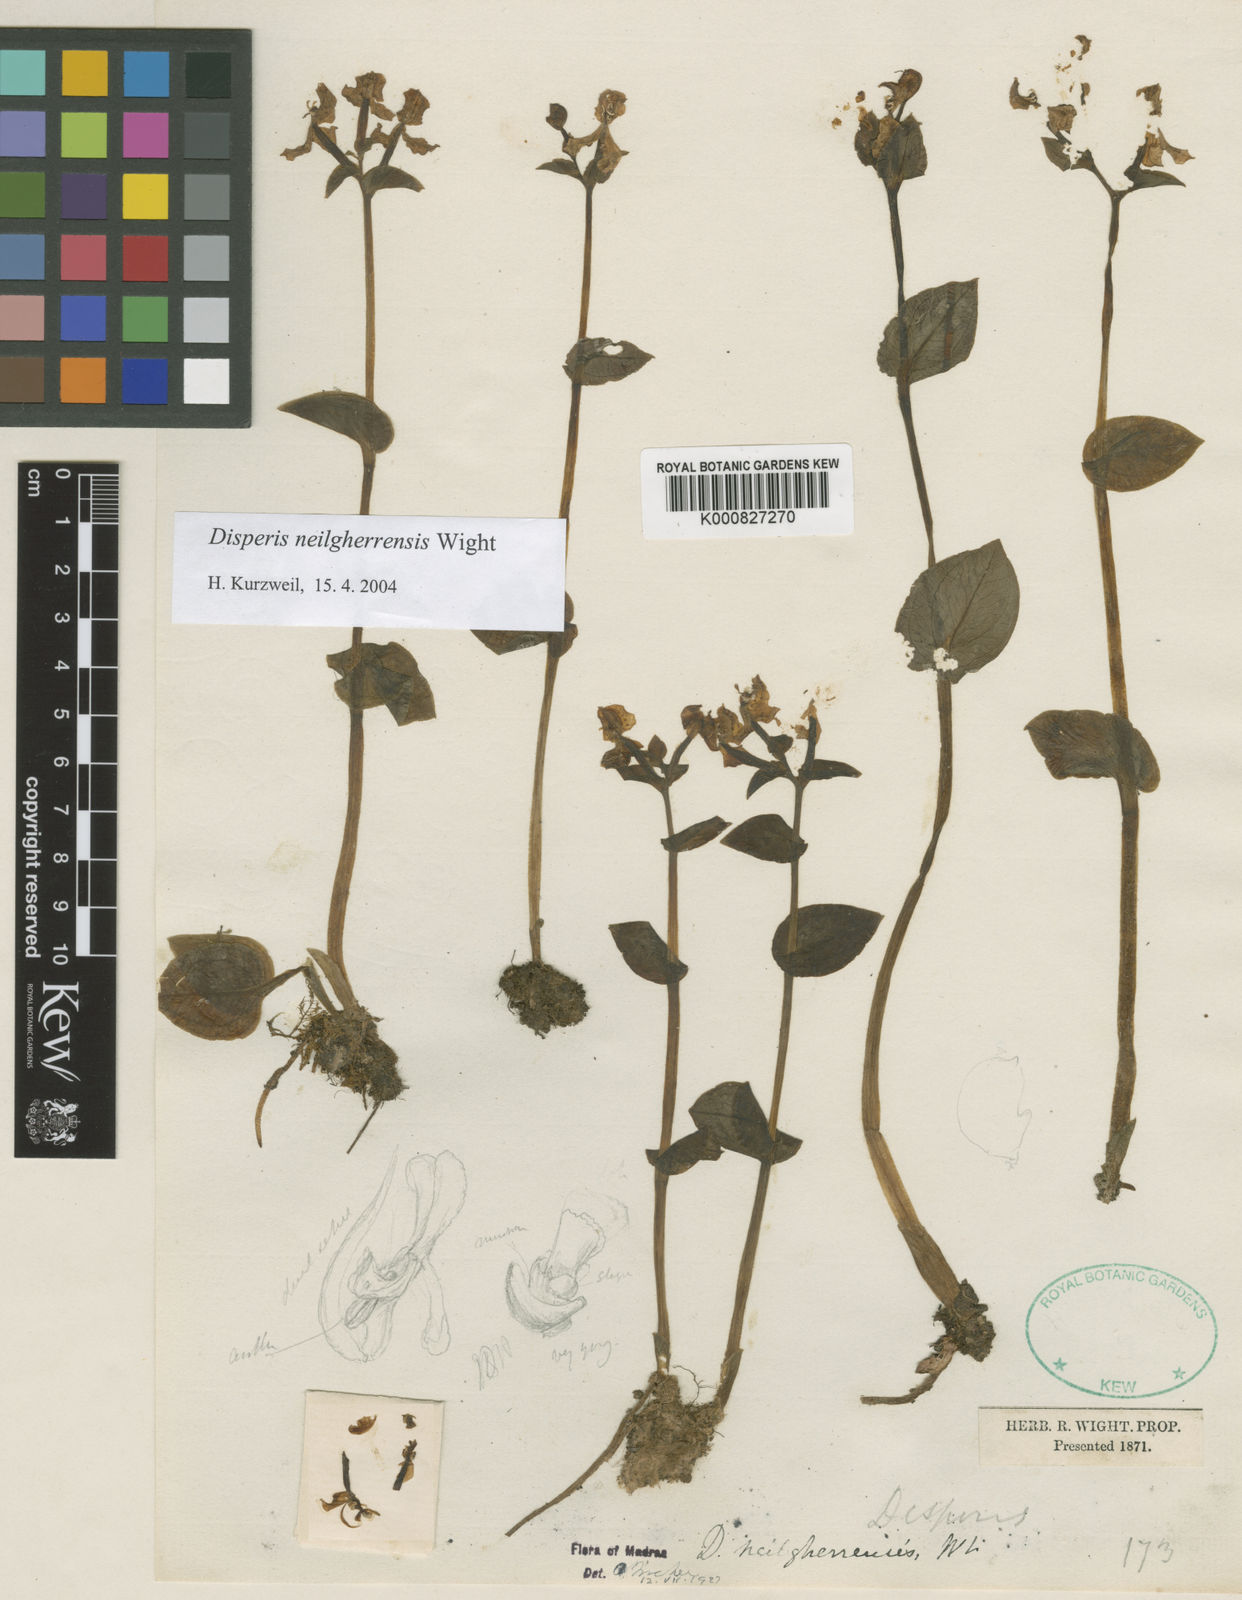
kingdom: Plantae
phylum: Tracheophyta
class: Liliopsida
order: Asparagales
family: Orchidaceae
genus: Disperis
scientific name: Disperis neilgherrensis
